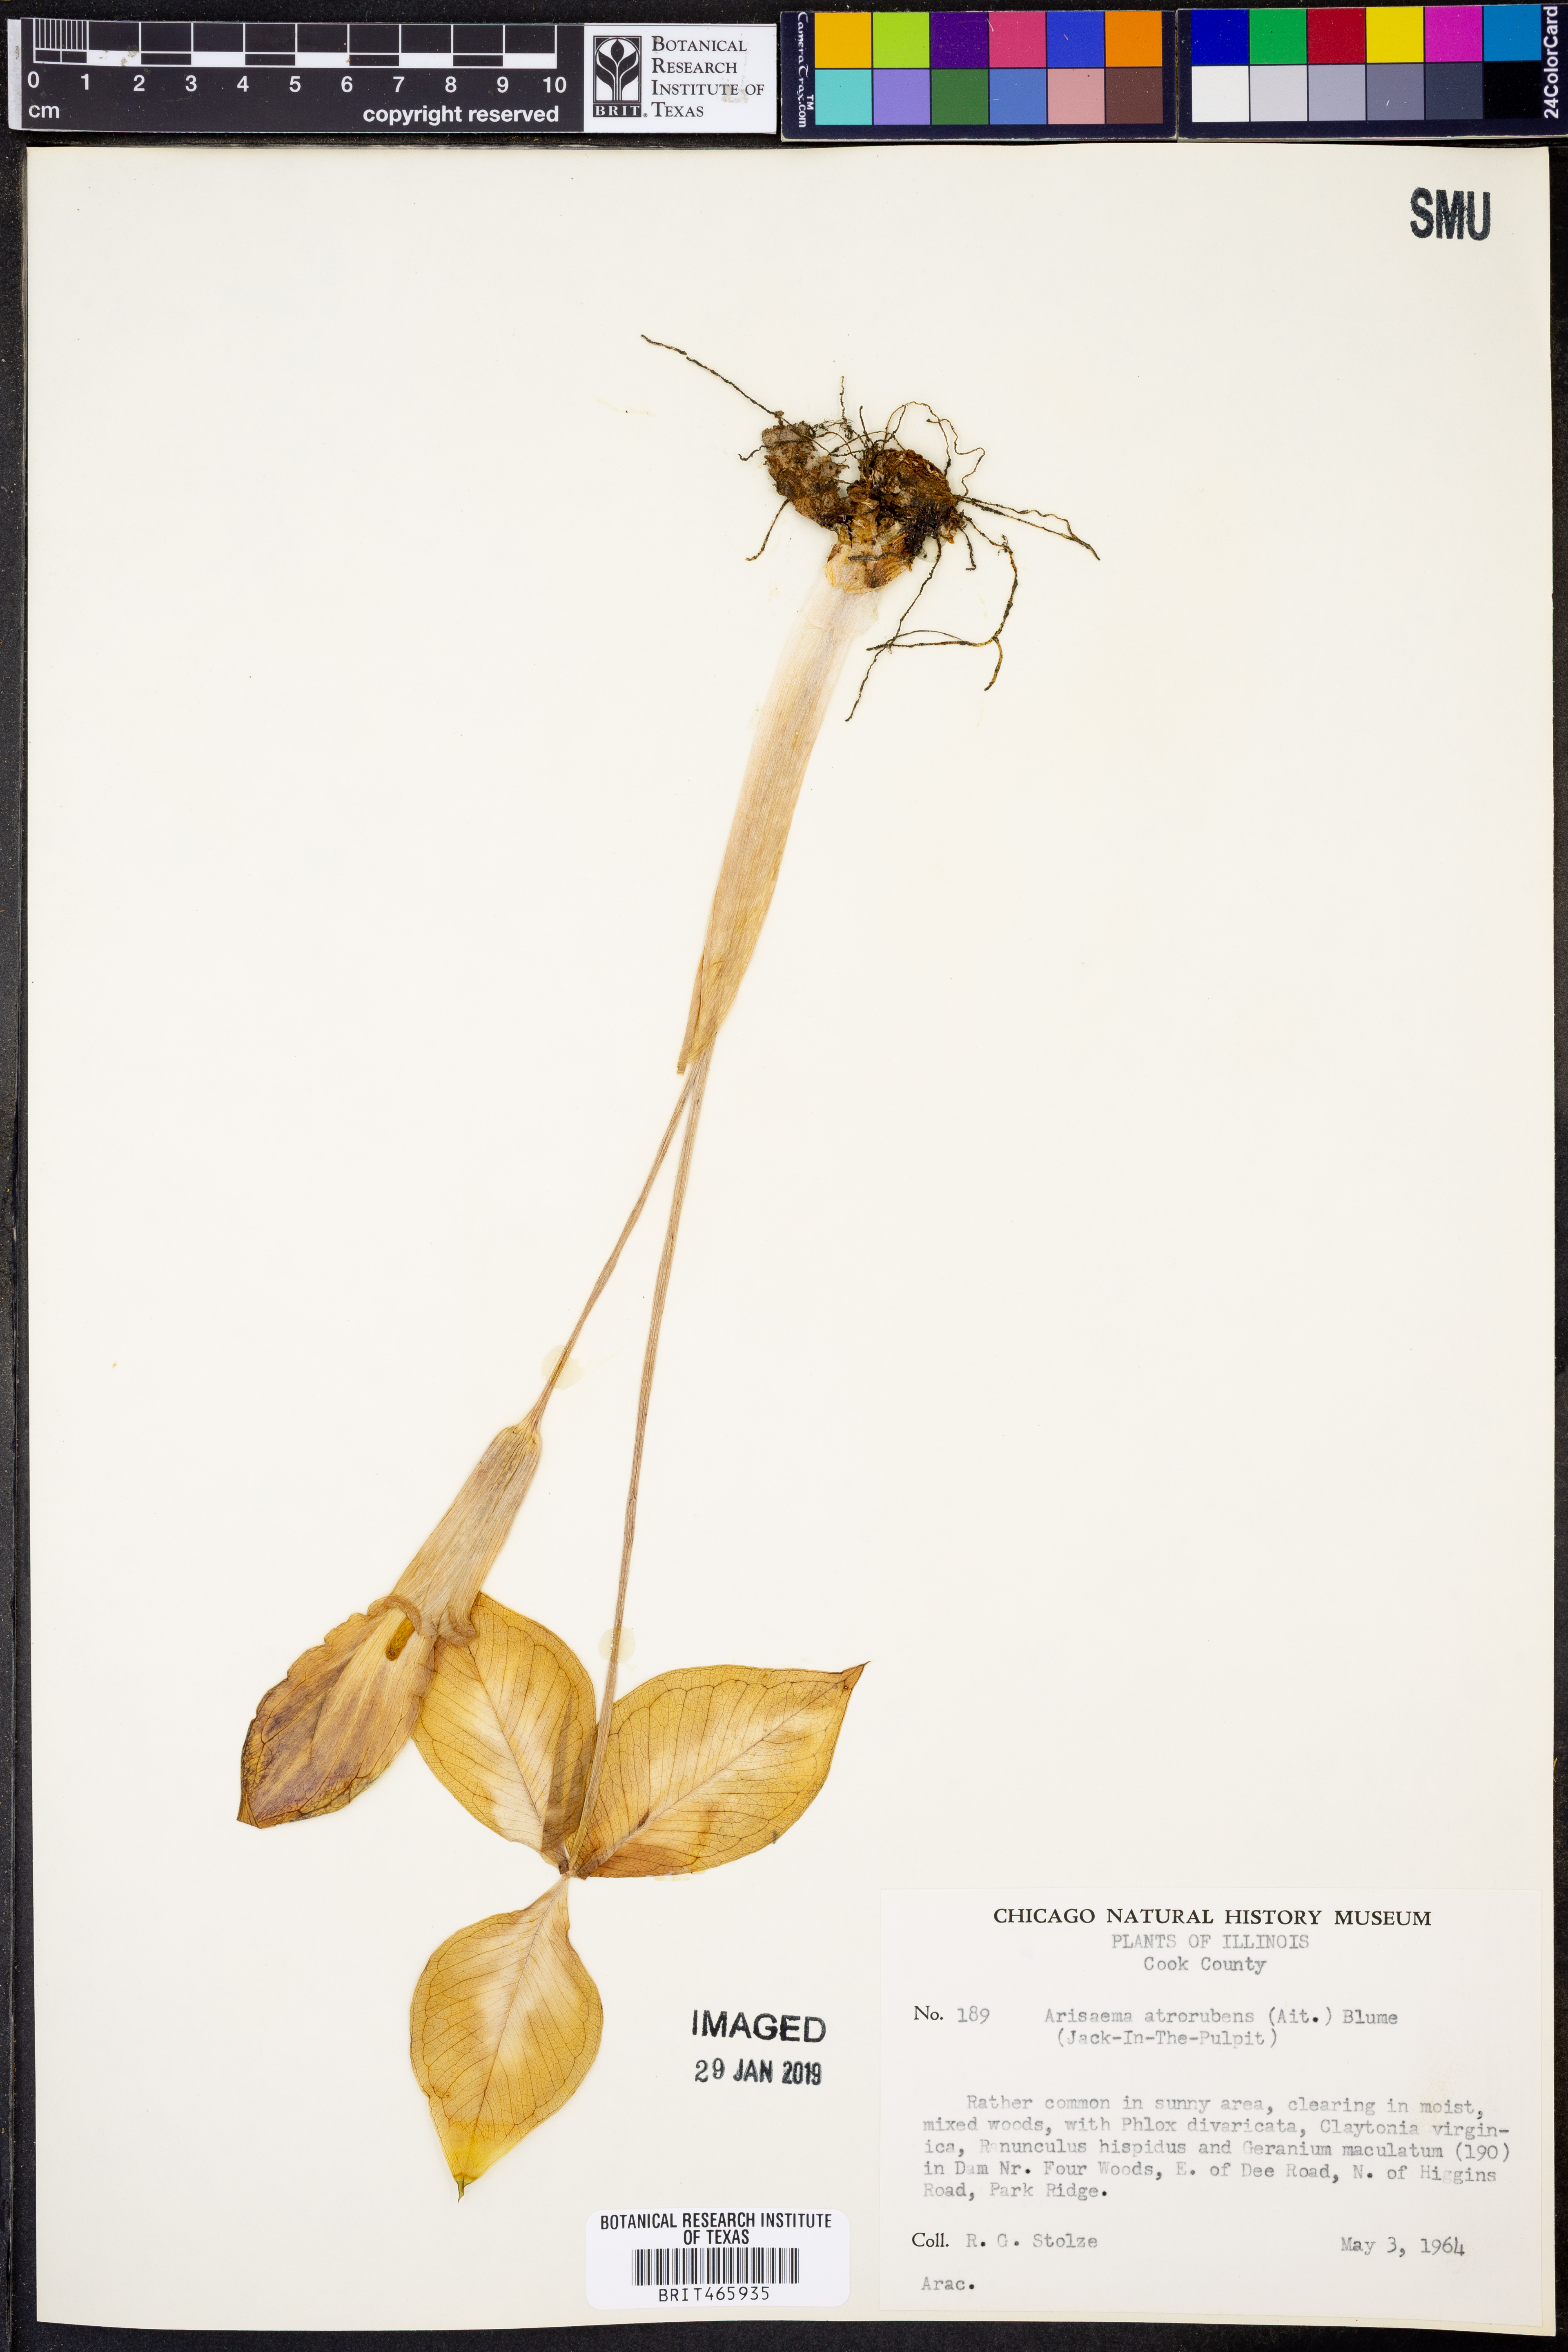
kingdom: Plantae
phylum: Tracheophyta
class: Liliopsida
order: Alismatales
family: Araceae
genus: Arisaema
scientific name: Arisaema triphyllum
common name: Jack-in-the-pulpit
